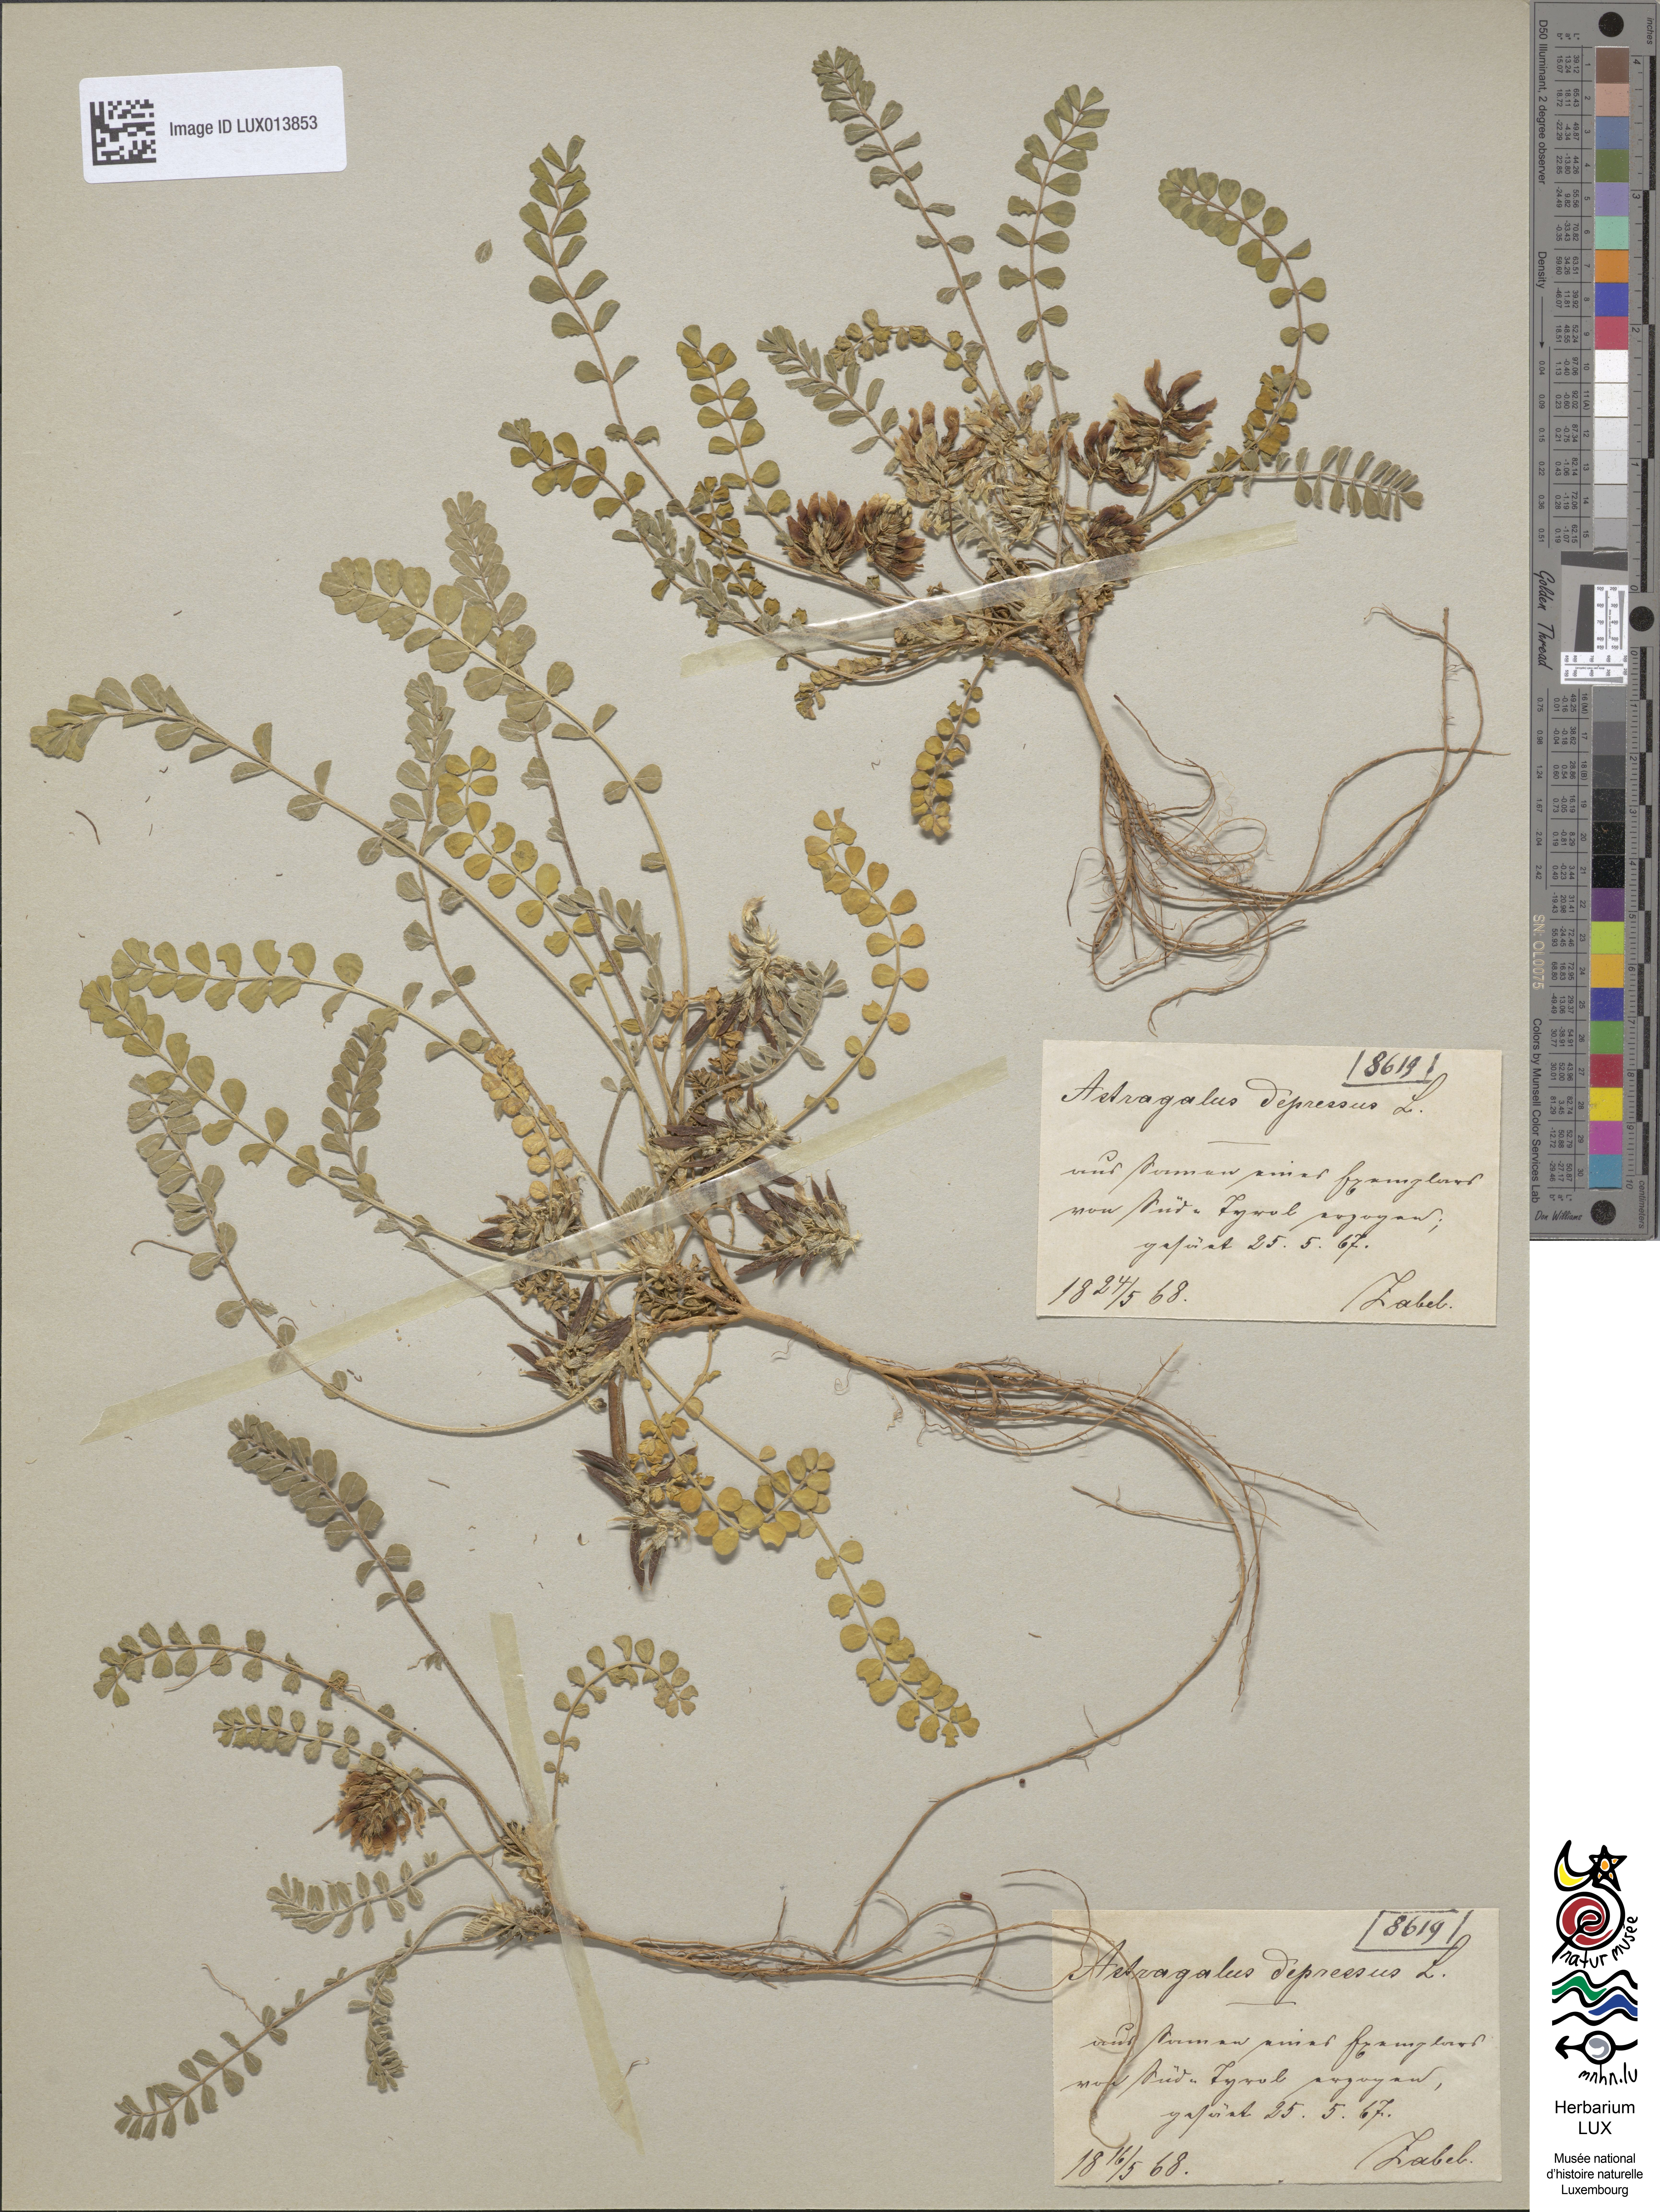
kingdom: Plantae
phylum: Tracheophyta
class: Magnoliopsida
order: Fabales
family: Fabaceae
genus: Astragalus
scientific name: Astragalus depressus
